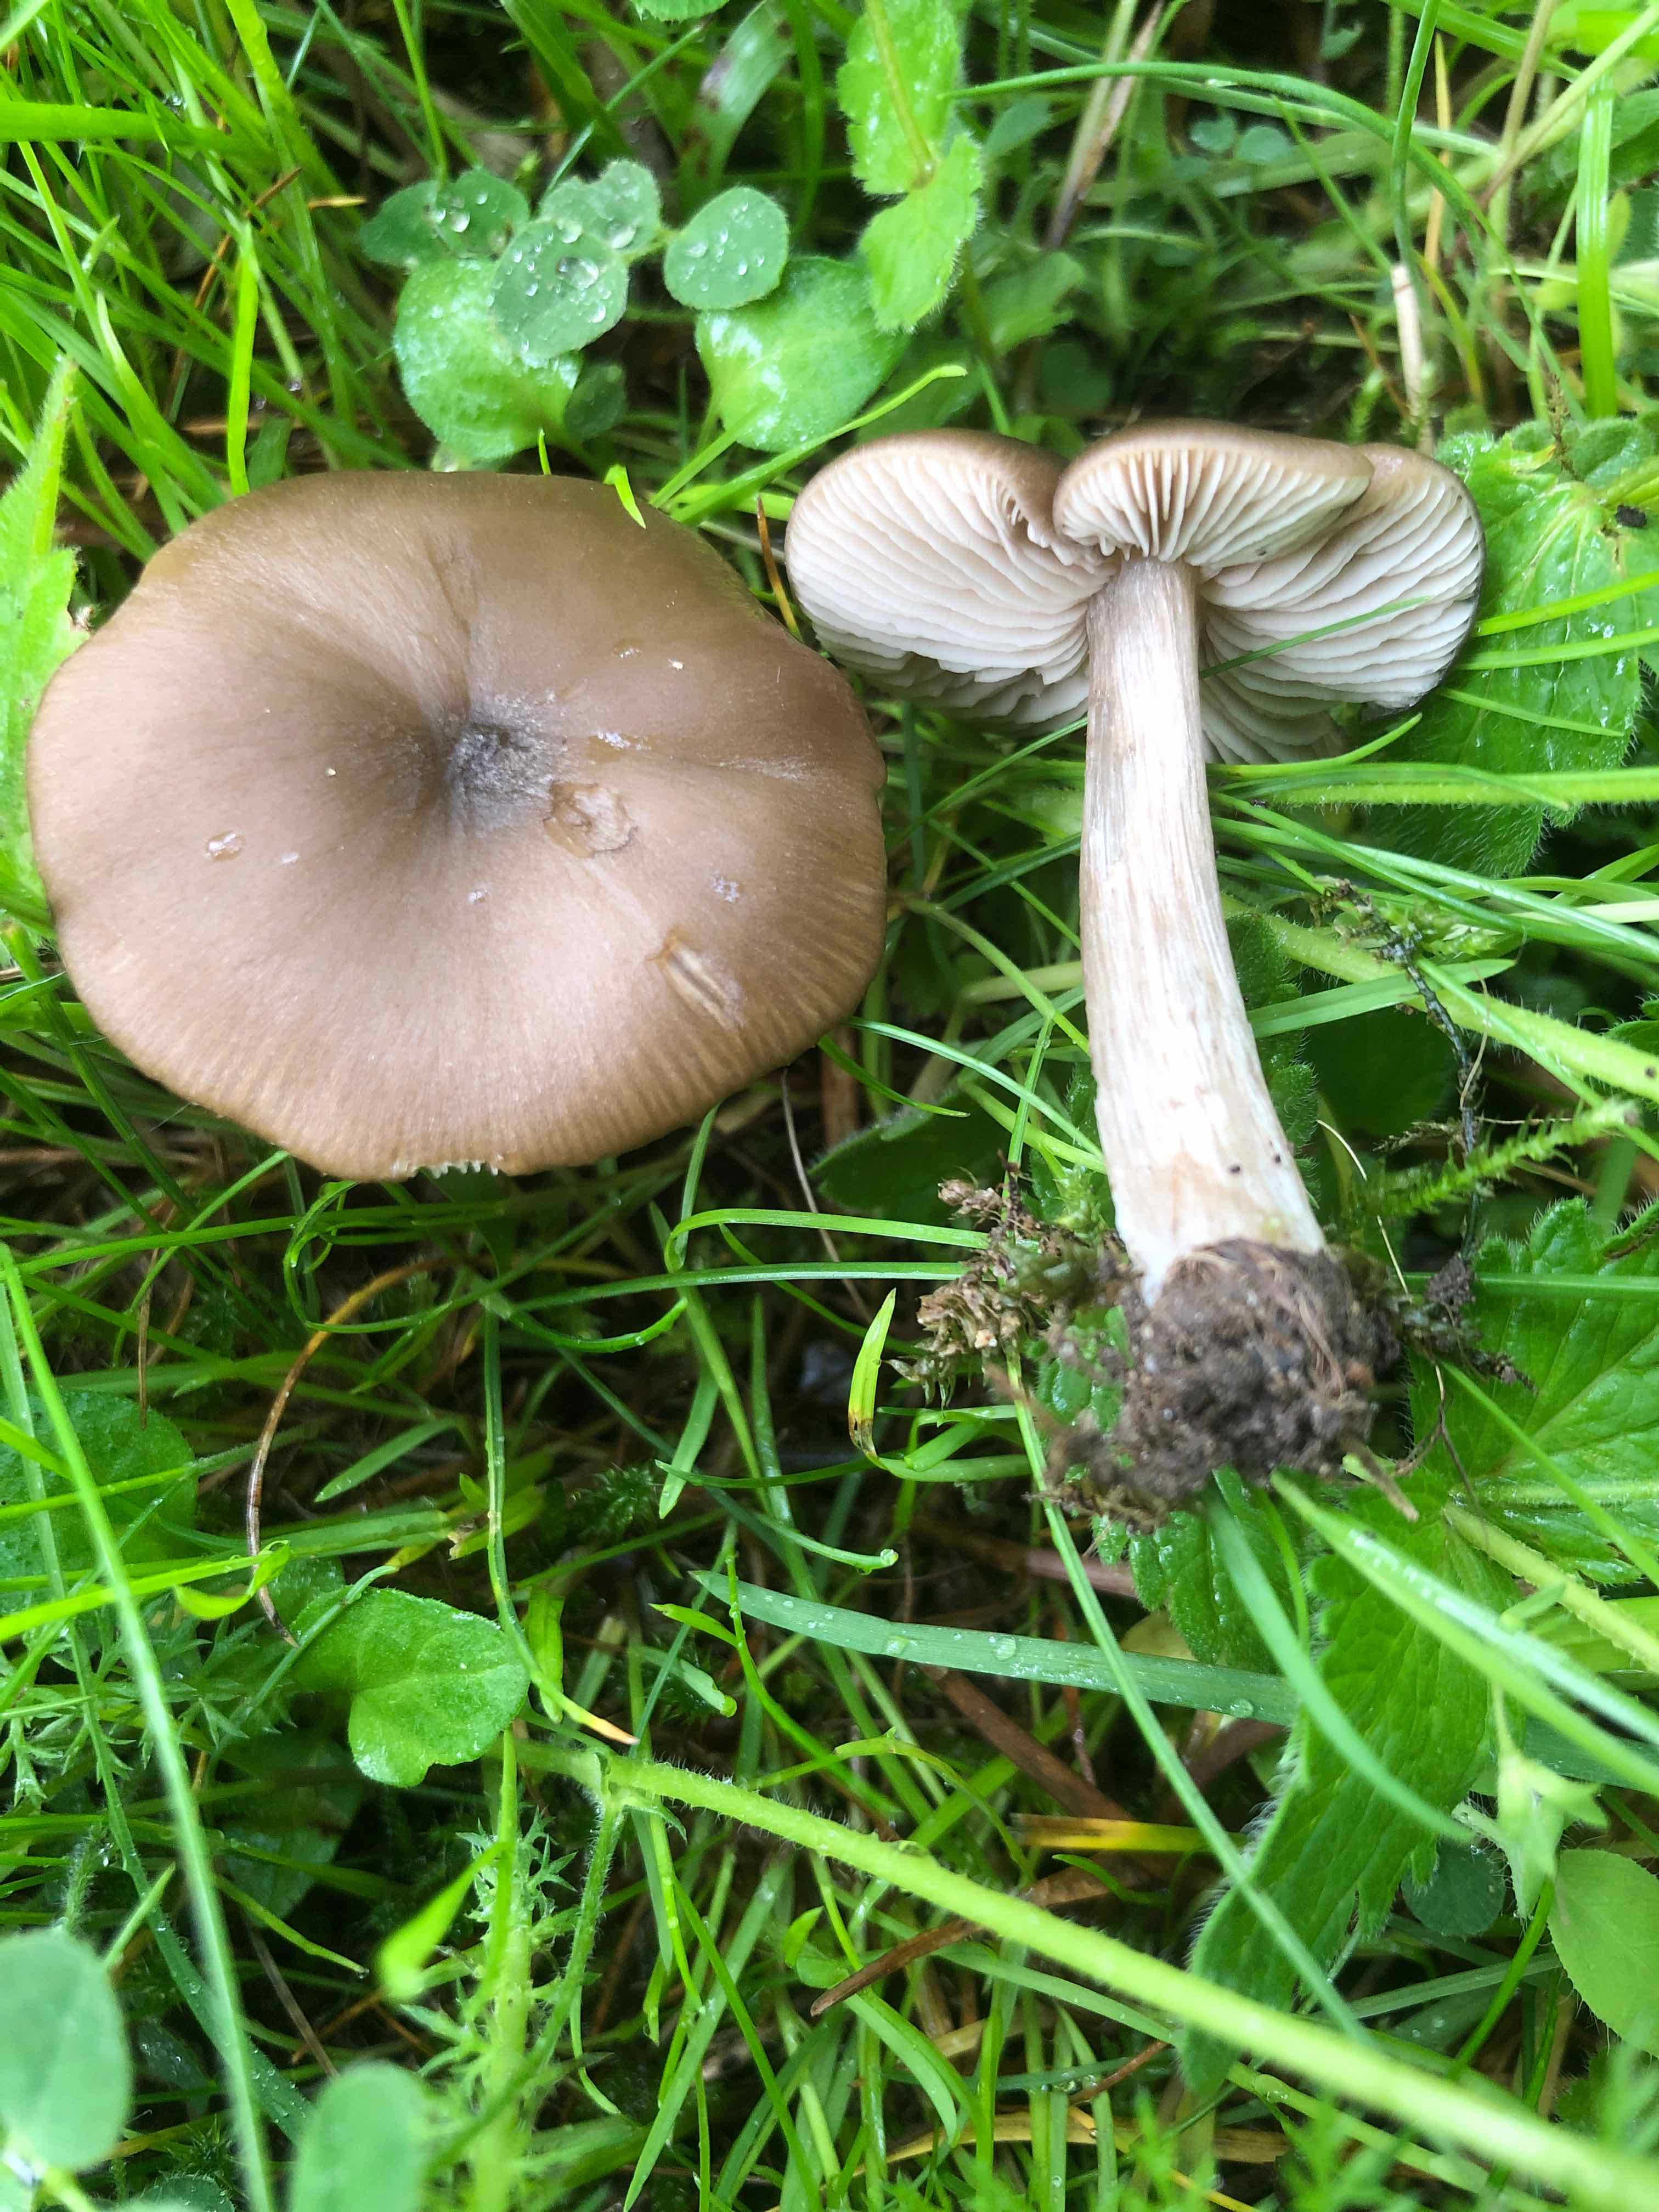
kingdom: Fungi
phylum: Basidiomycota
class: Agaricomycetes
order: Agaricales
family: Entolomataceae
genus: Entoloma
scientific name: Entoloma
